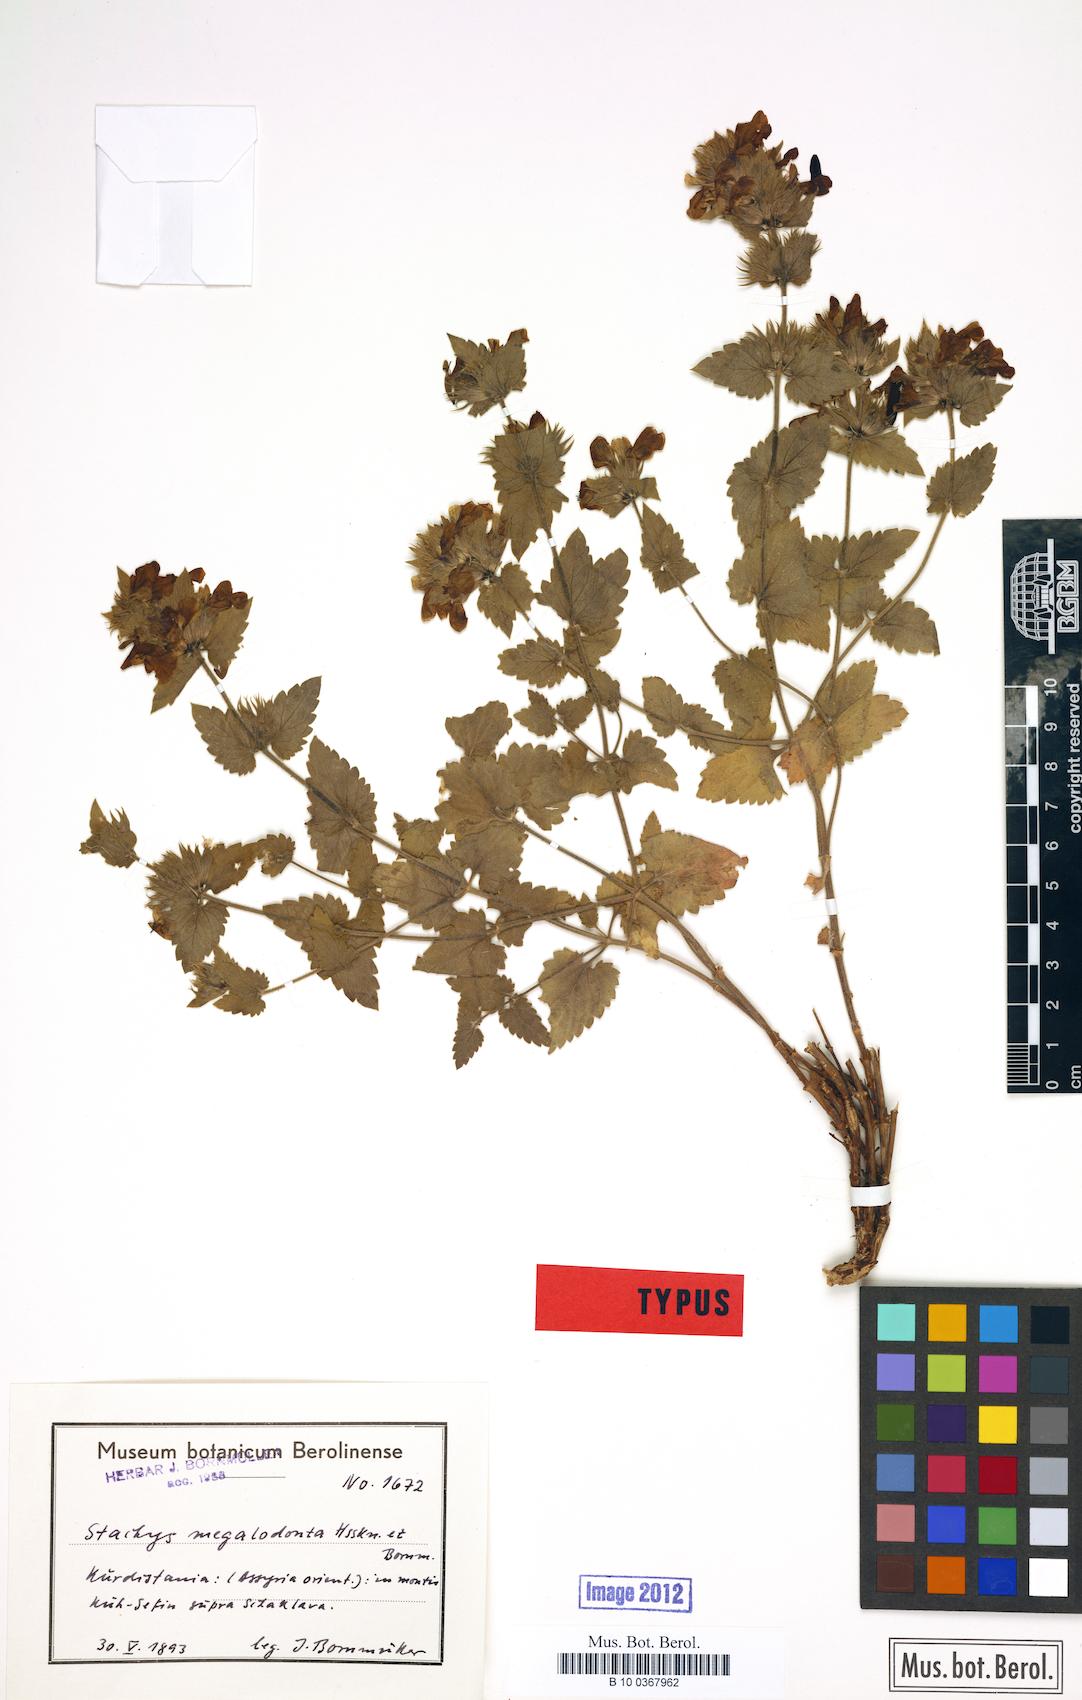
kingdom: Plantae
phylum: Tracheophyta
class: Magnoliopsida
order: Lamiales
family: Lamiaceae
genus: Stachys
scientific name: Stachys megalodonta
